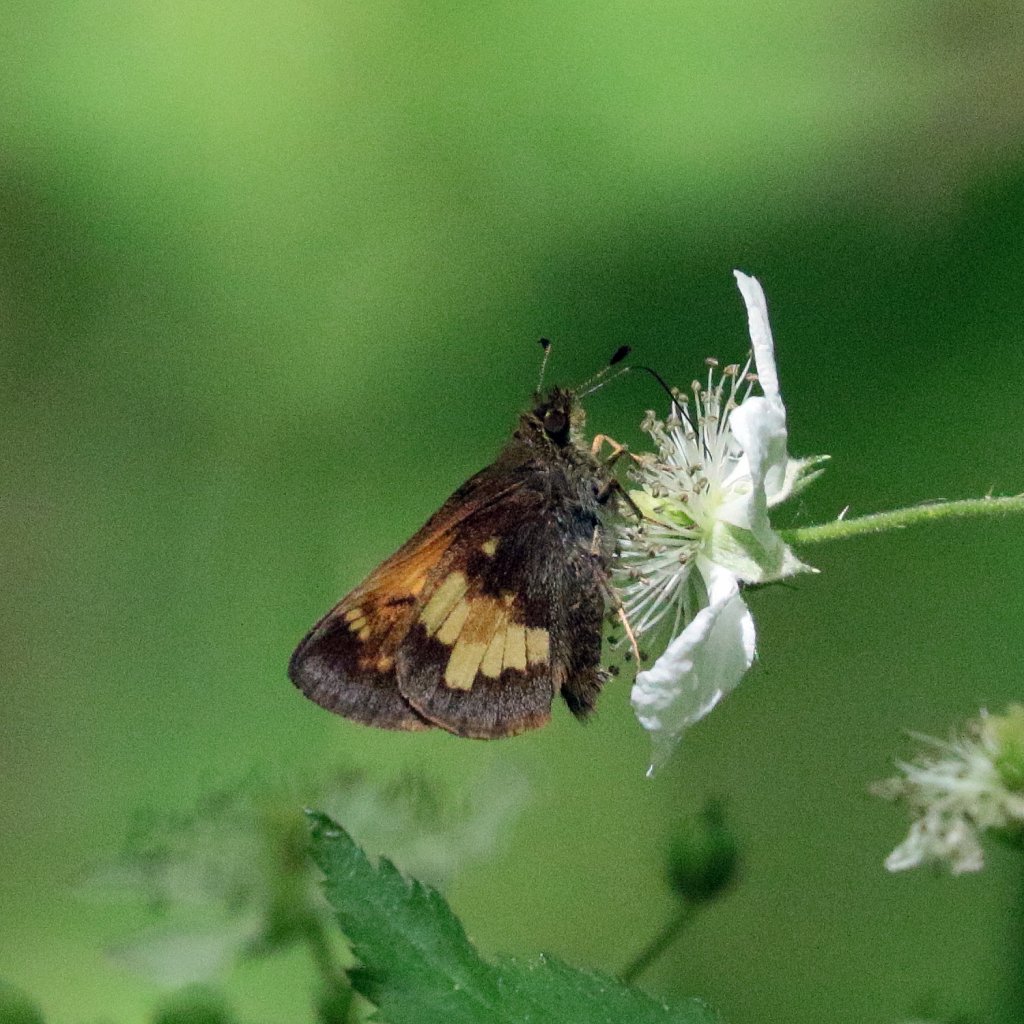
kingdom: Animalia
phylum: Arthropoda
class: Insecta
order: Lepidoptera
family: Hesperiidae
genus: Lon
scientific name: Lon hobomok
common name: Hobomok Skipper
